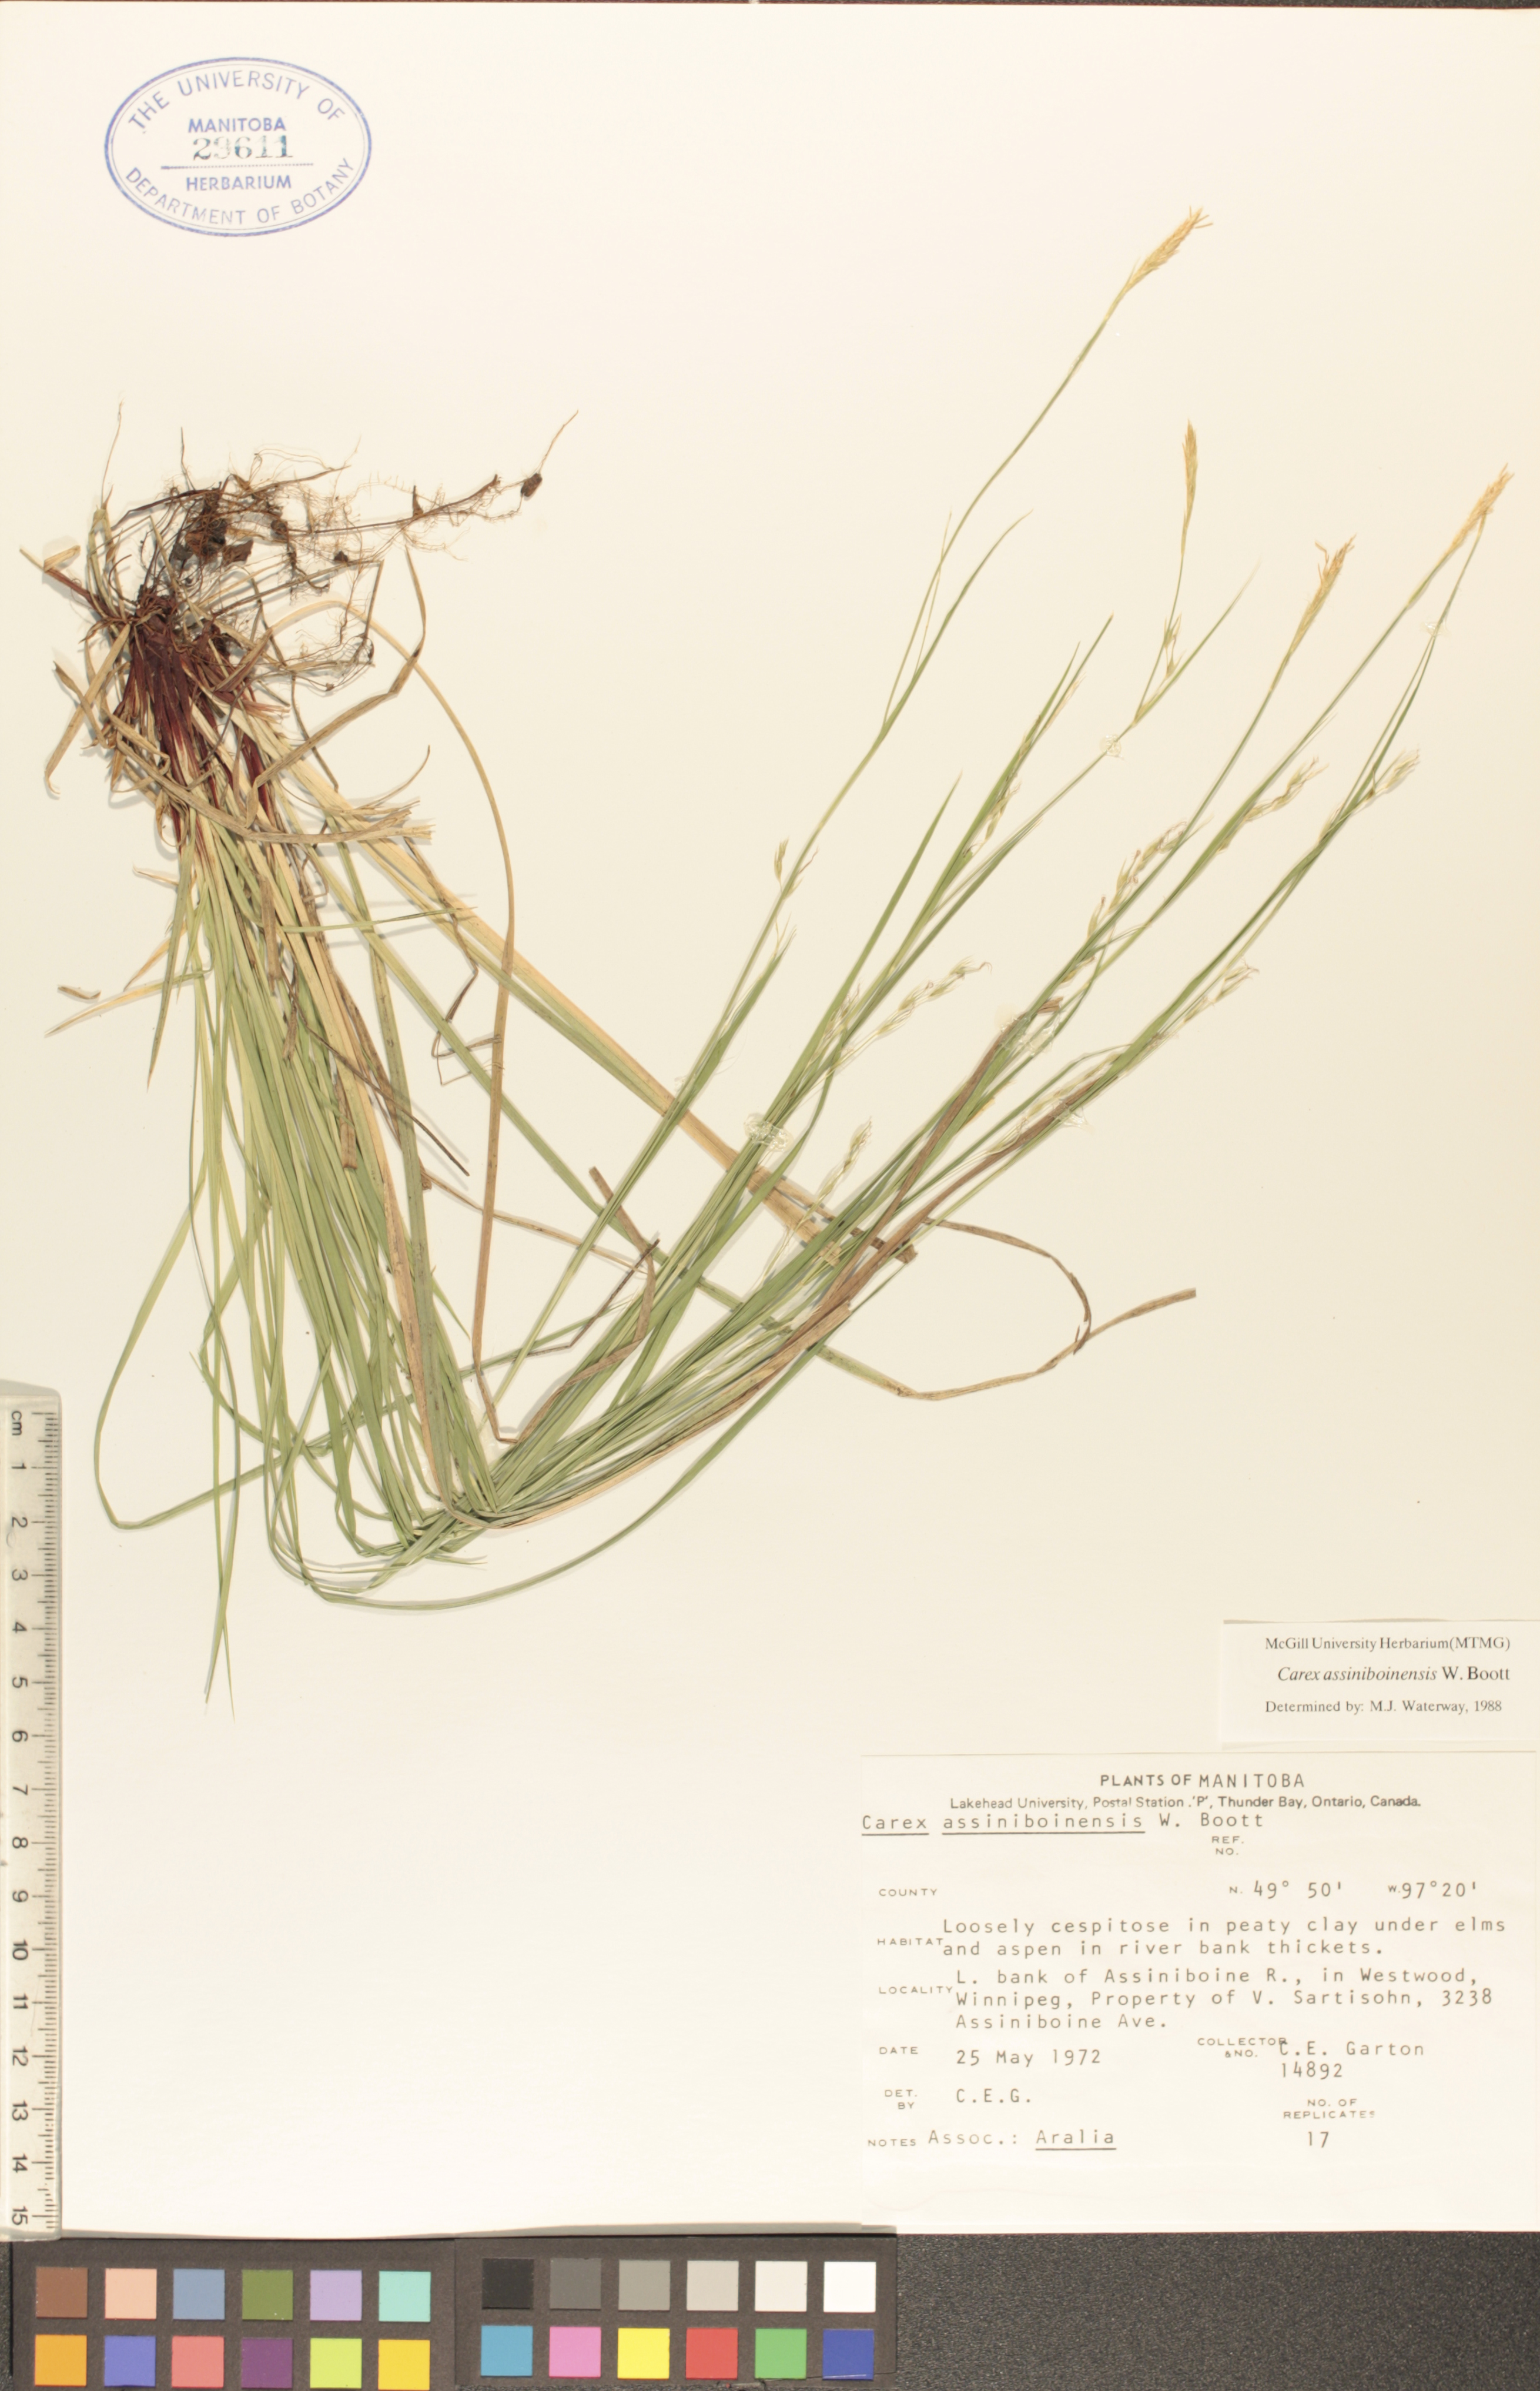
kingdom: Plantae
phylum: Tracheophyta
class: Liliopsida
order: Poales
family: Cyperaceae
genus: Carex
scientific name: Carex assiniboinensis
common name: Assiniboia sedge
